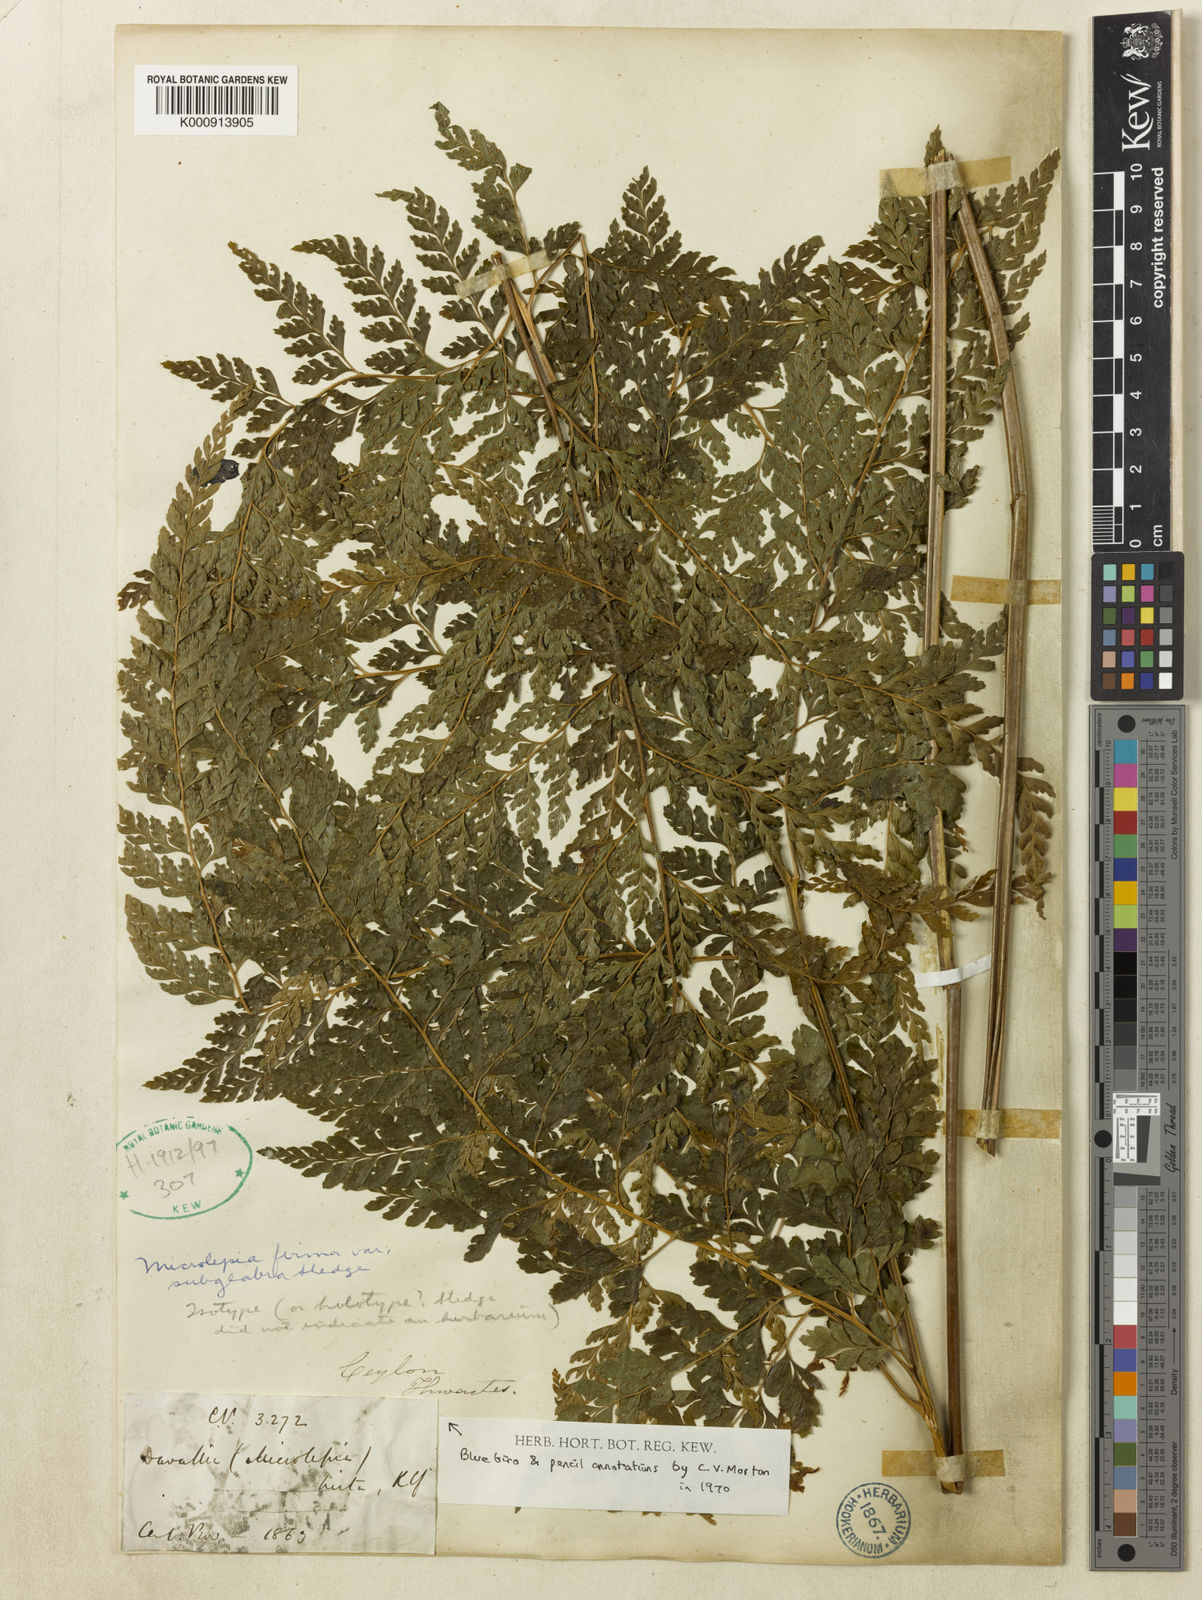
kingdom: Plantae
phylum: Tracheophyta
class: Polypodiopsida
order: Polypodiales
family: Dennstaedtiaceae
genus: Microlepia
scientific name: Microlepia firma
